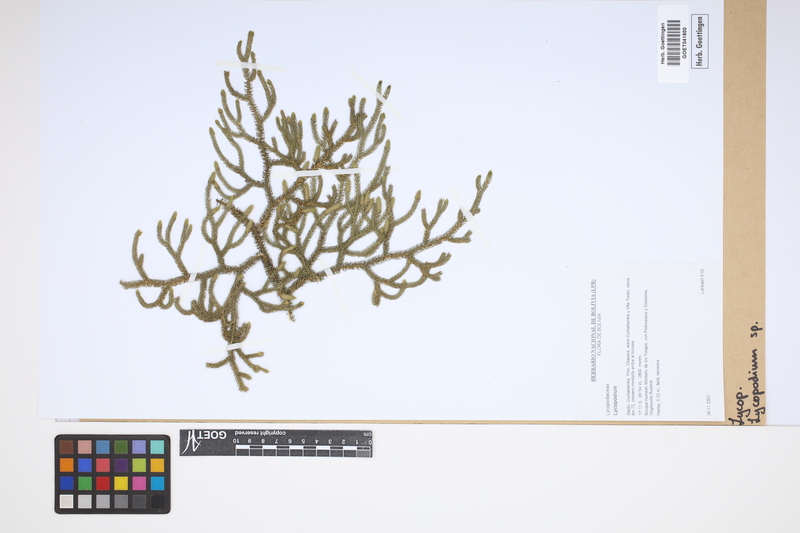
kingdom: Plantae
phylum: Tracheophyta
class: Lycopodiopsida
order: Lycopodiales
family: Lycopodiaceae
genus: Lycopodium
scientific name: Lycopodium
